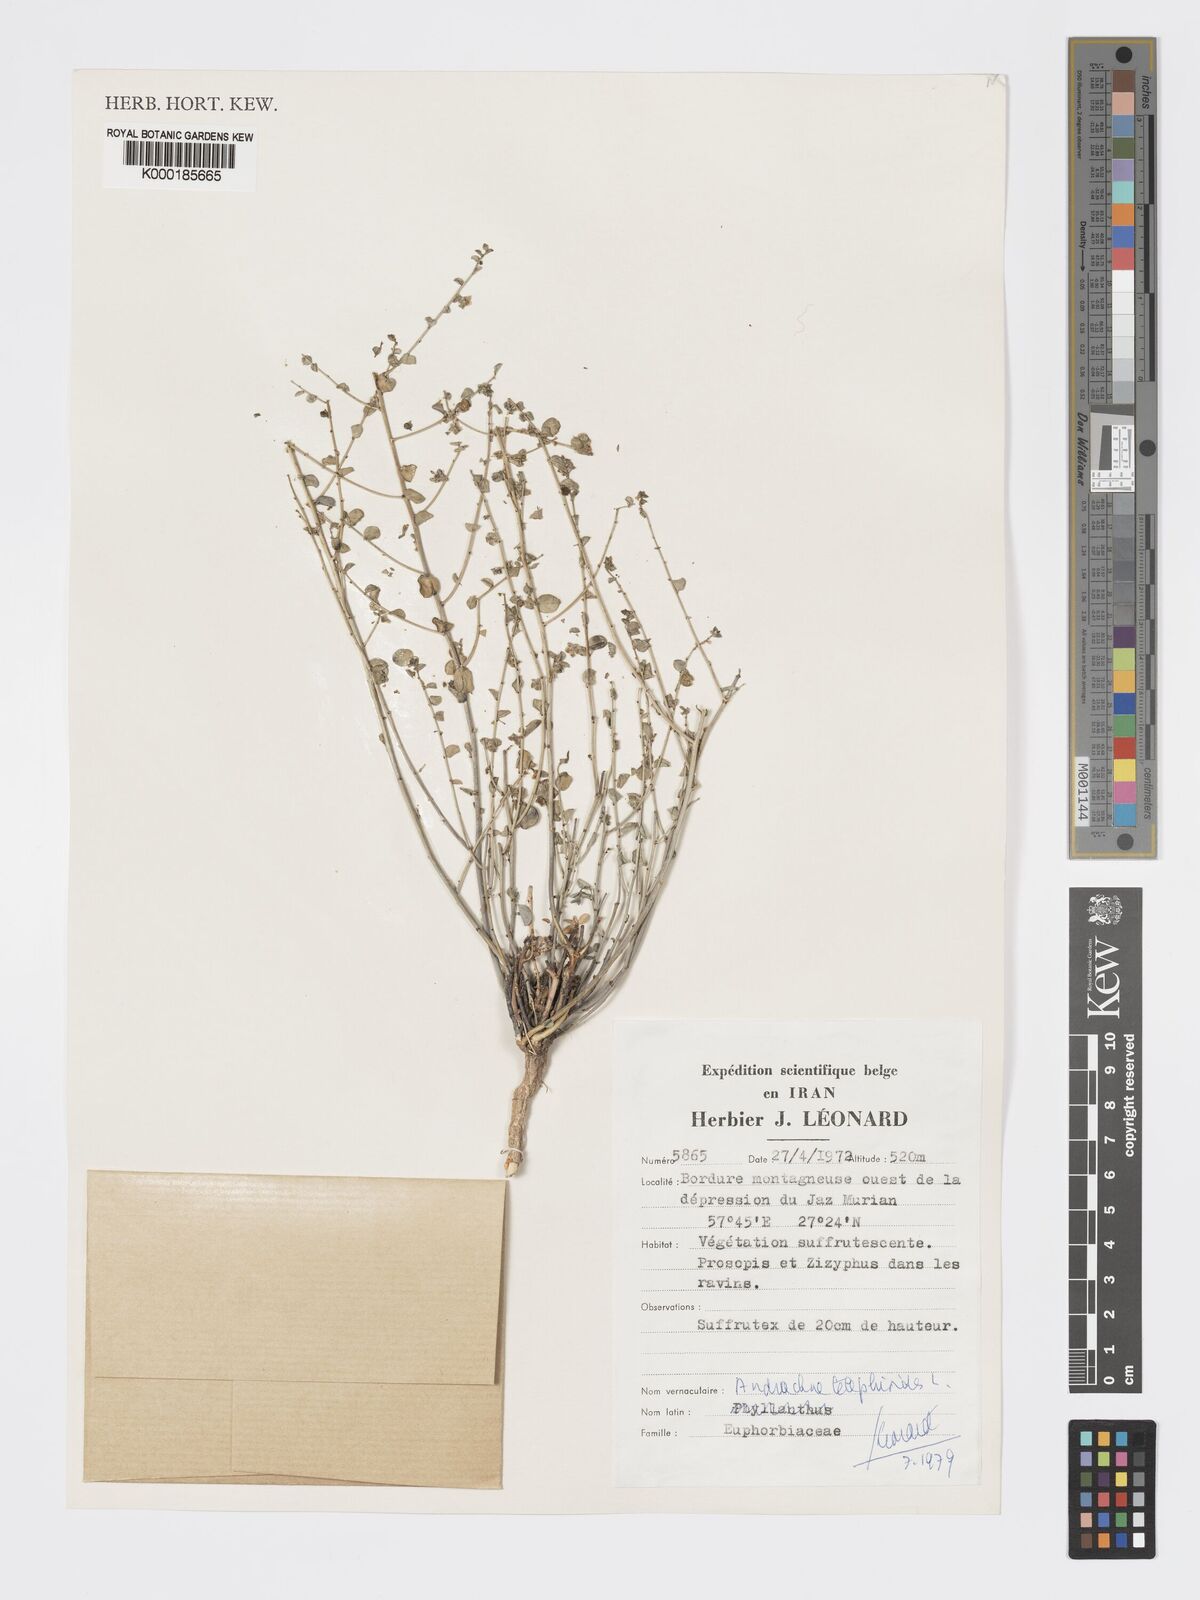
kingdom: Plantae
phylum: Tracheophyta
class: Magnoliopsida
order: Malpighiales
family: Phyllanthaceae
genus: Andrachne
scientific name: Andrachne telephioides
